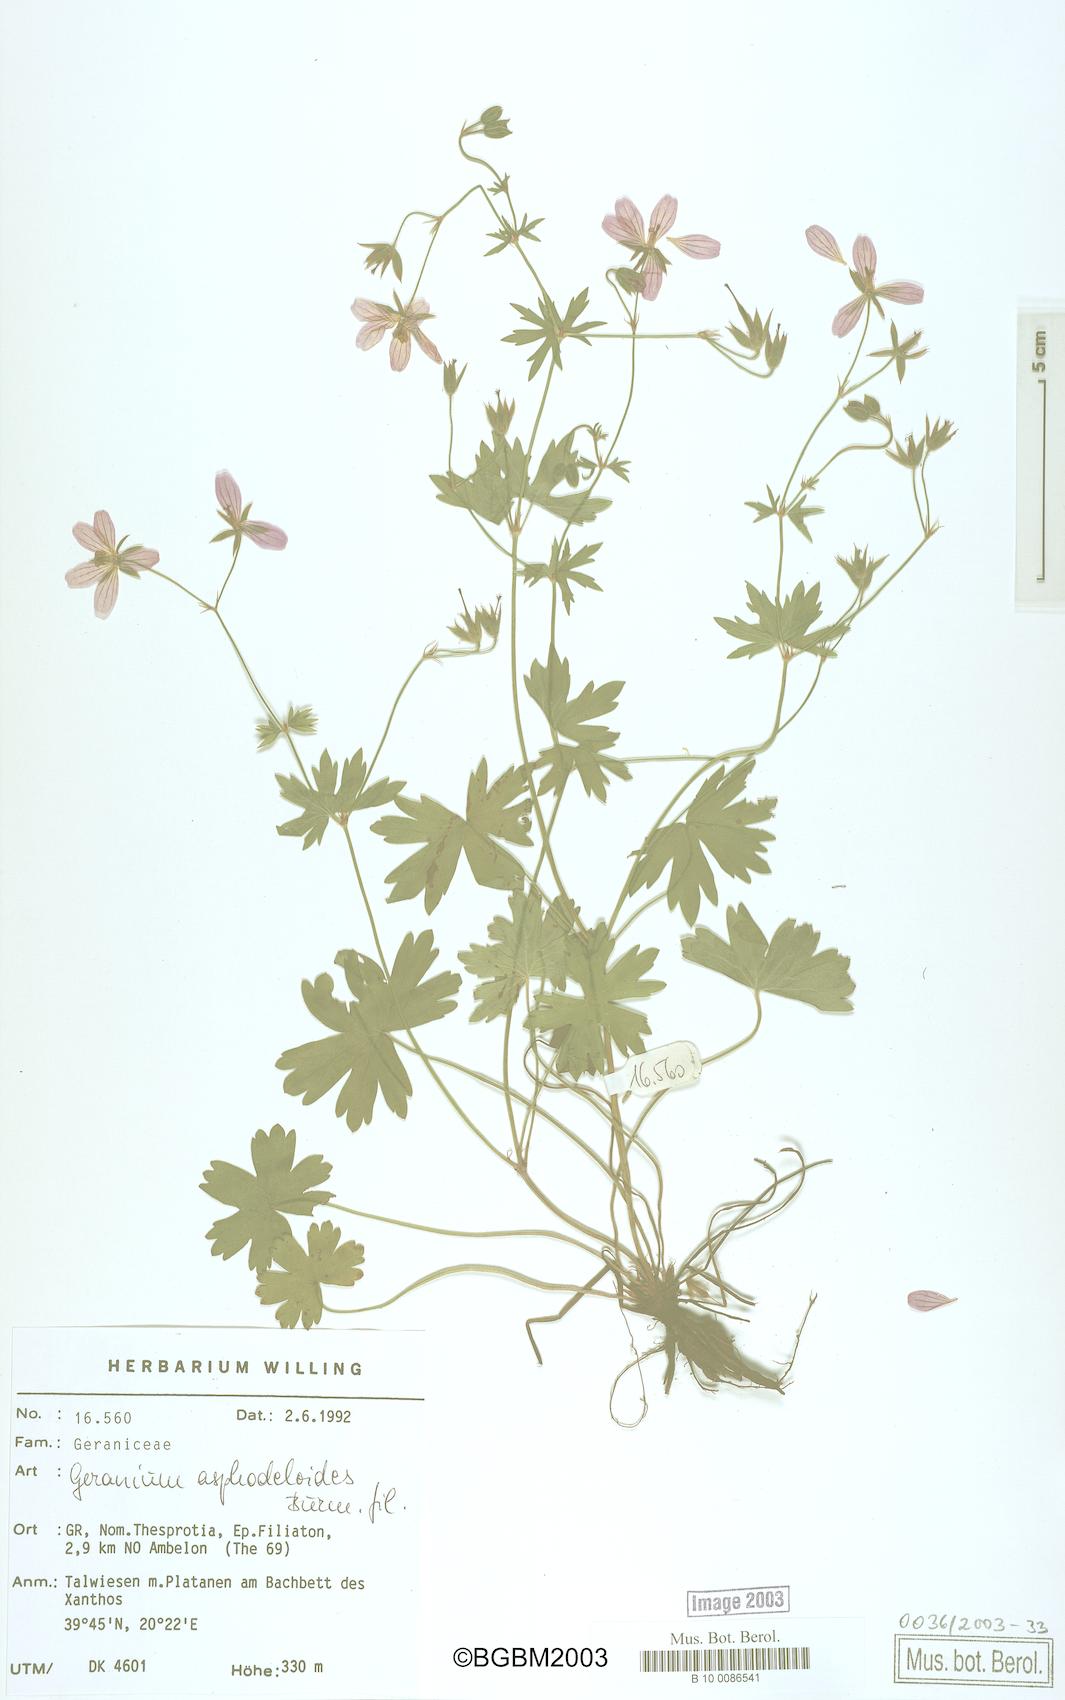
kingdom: Plantae
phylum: Tracheophyta
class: Magnoliopsida
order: Geraniales
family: Geraniaceae
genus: Geranium
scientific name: Geranium asphodeloides
